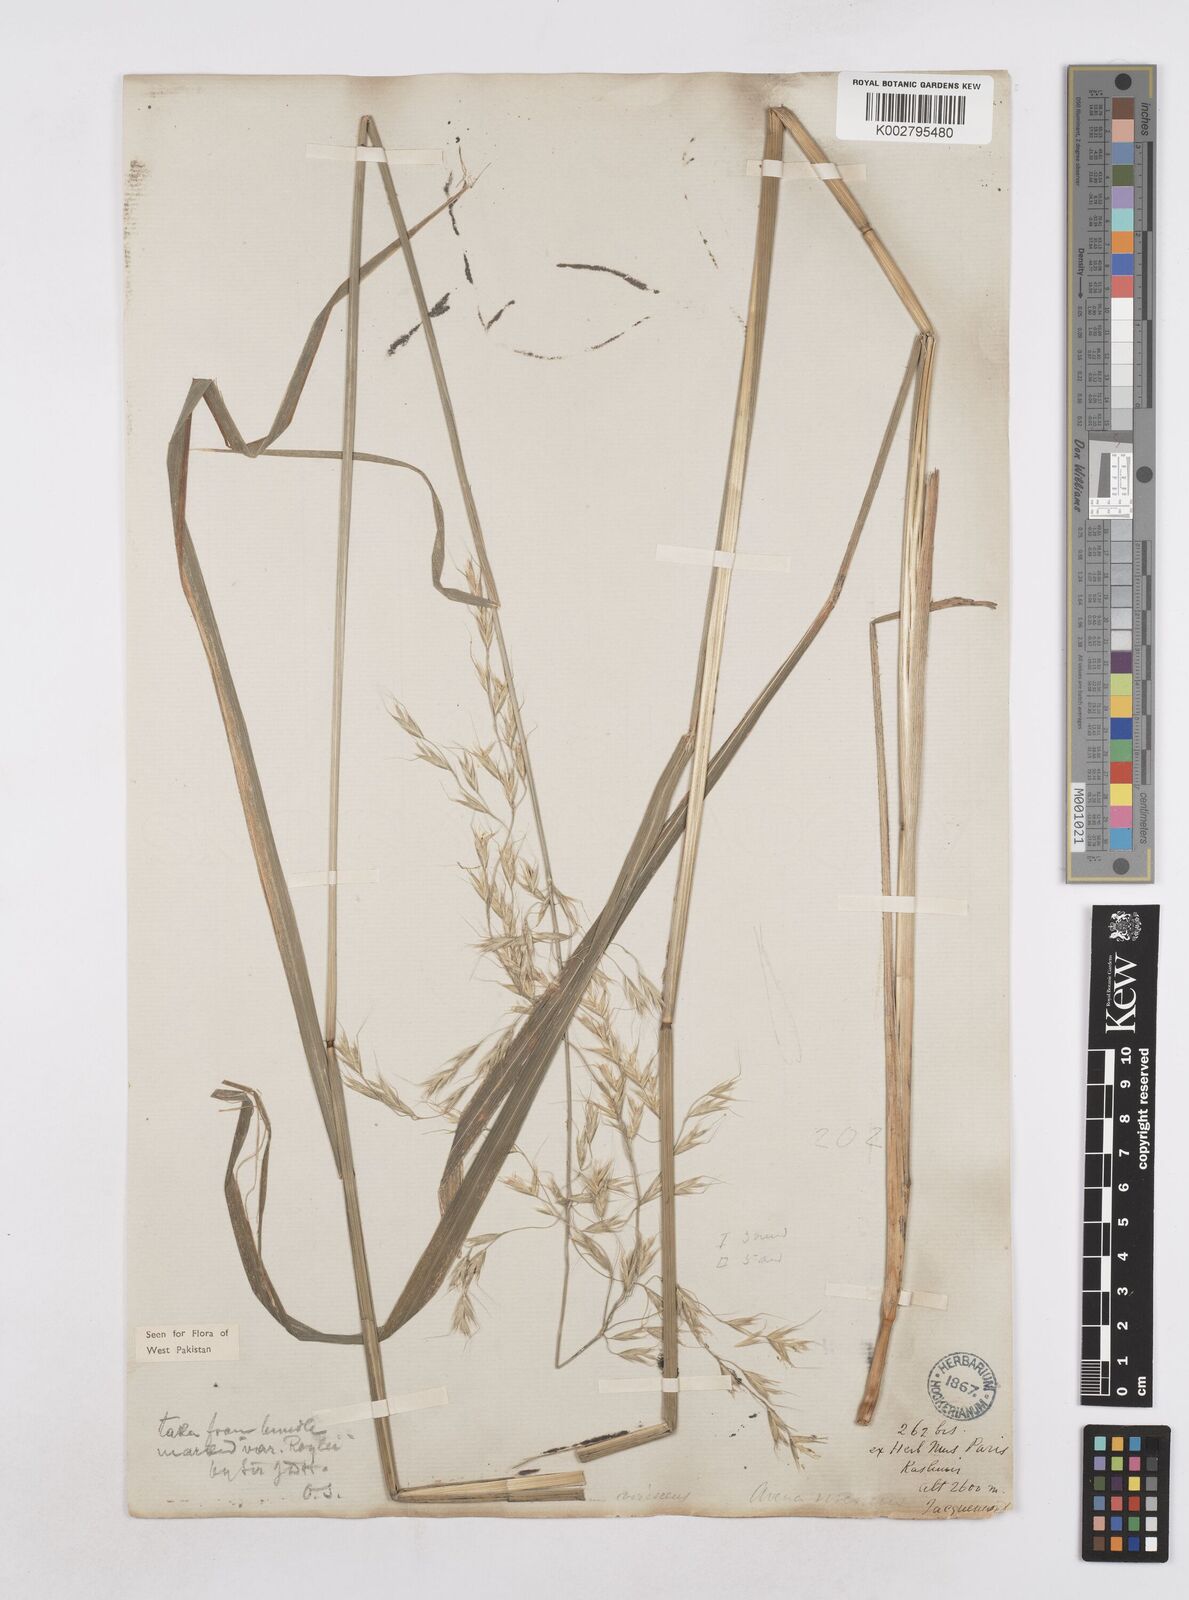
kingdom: Plantae
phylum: Tracheophyta
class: Liliopsida
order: Poales
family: Poaceae
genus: Trisetopsis
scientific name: Trisetopsis junghuhnii
